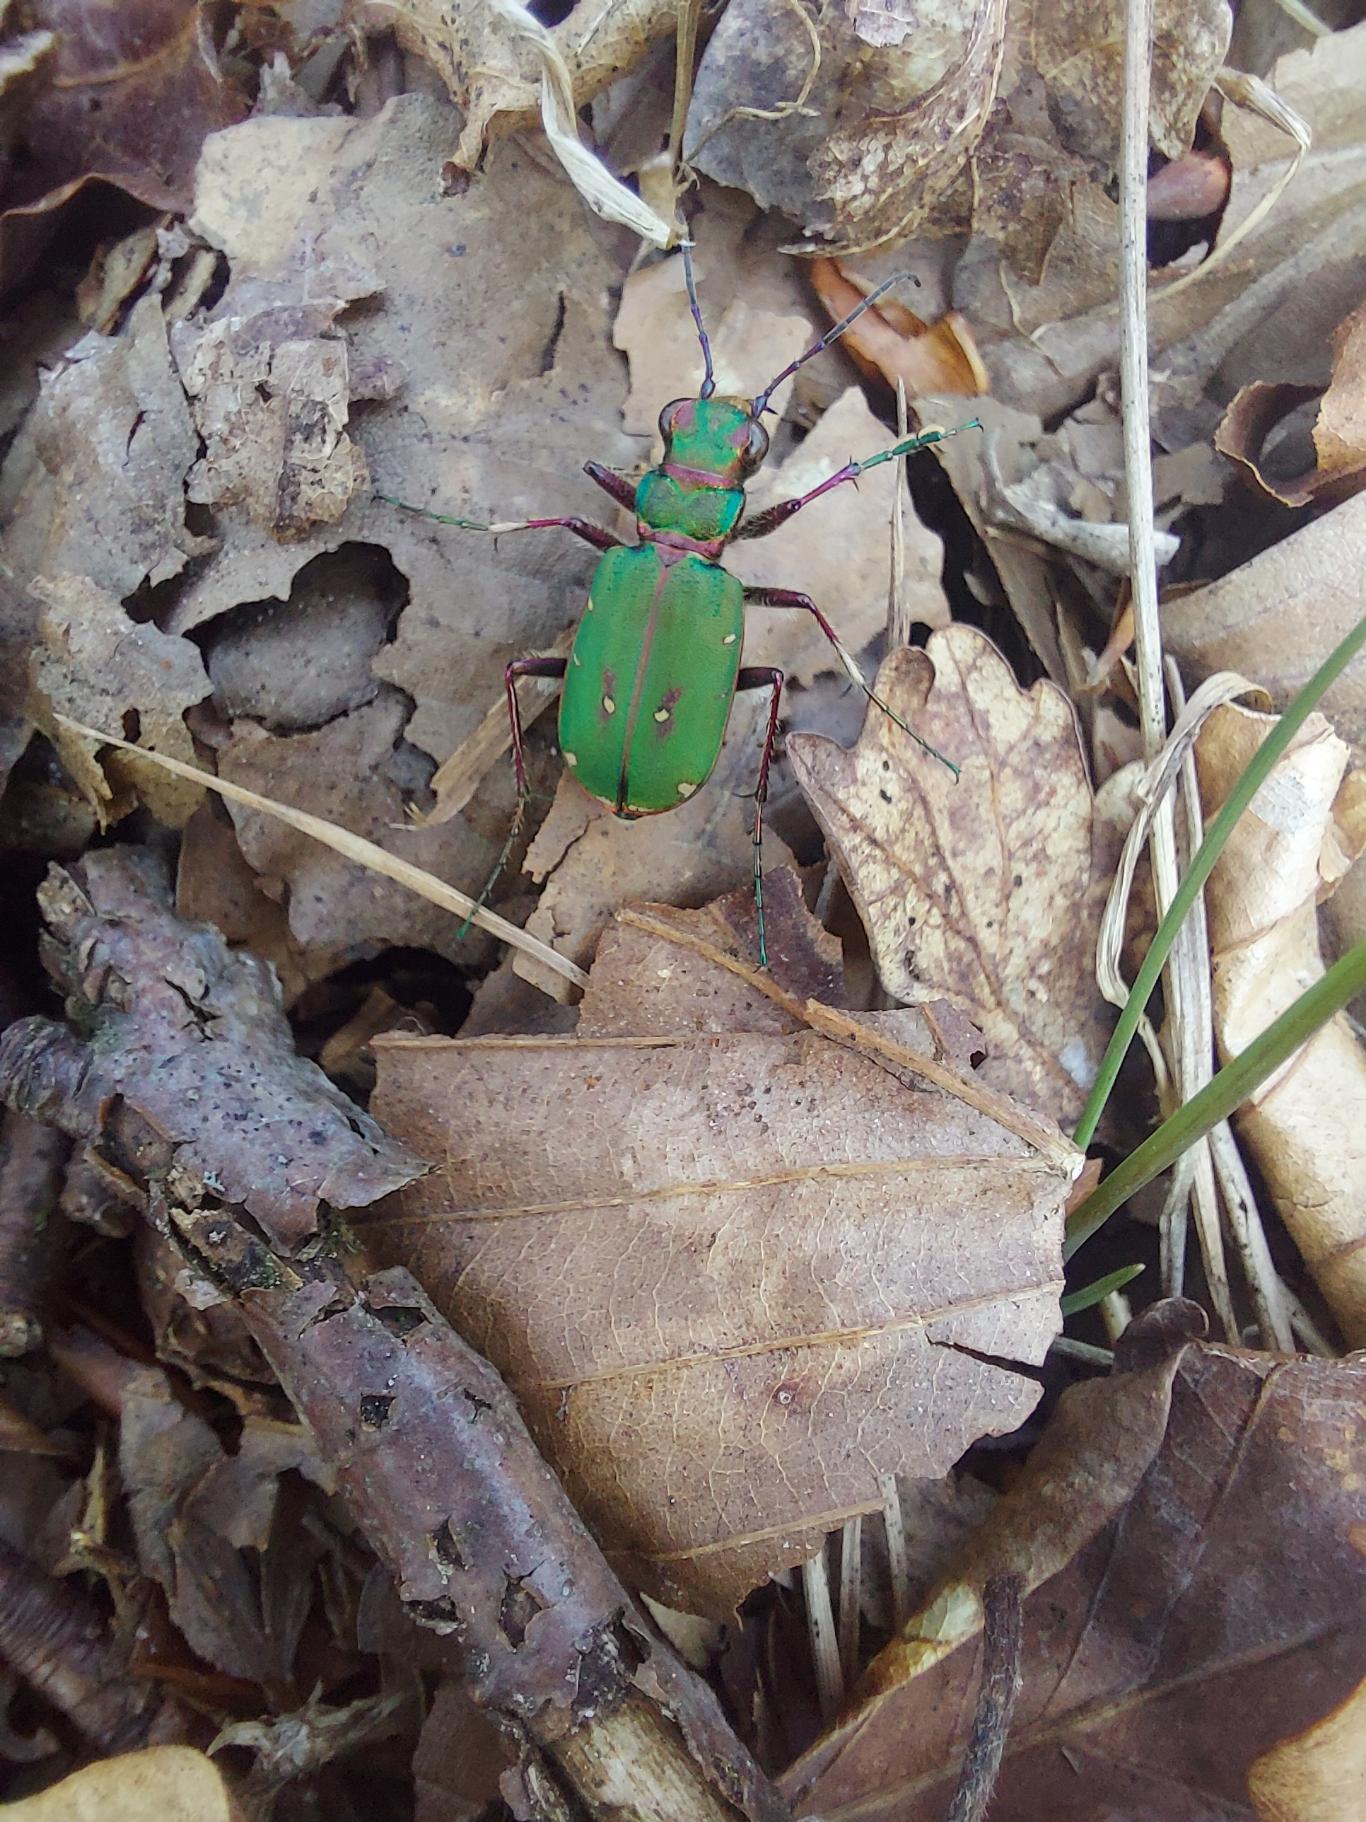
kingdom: Animalia
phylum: Arthropoda
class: Insecta
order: Coleoptera
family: Carabidae
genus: Cicindela
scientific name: Cicindela campestris
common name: Grøn sandspringer
